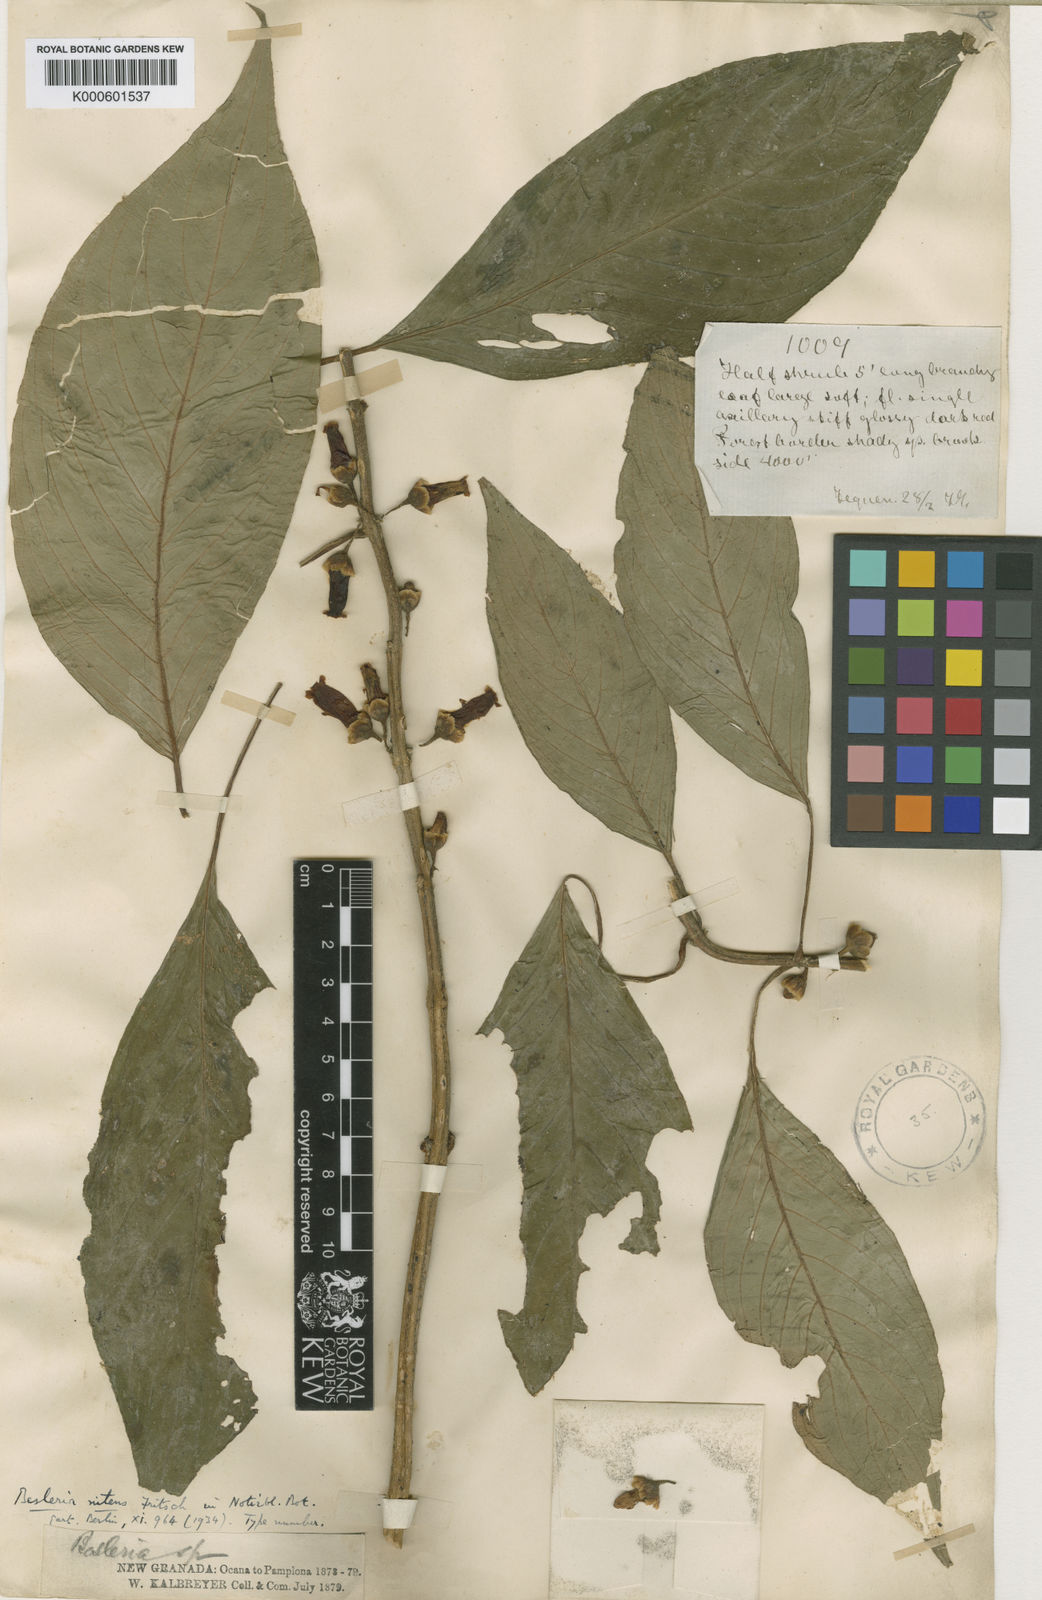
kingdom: Plantae
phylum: Tracheophyta
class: Magnoliopsida
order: Lamiales
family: Gesneriaceae
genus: Besleria
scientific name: Besleria nitens
